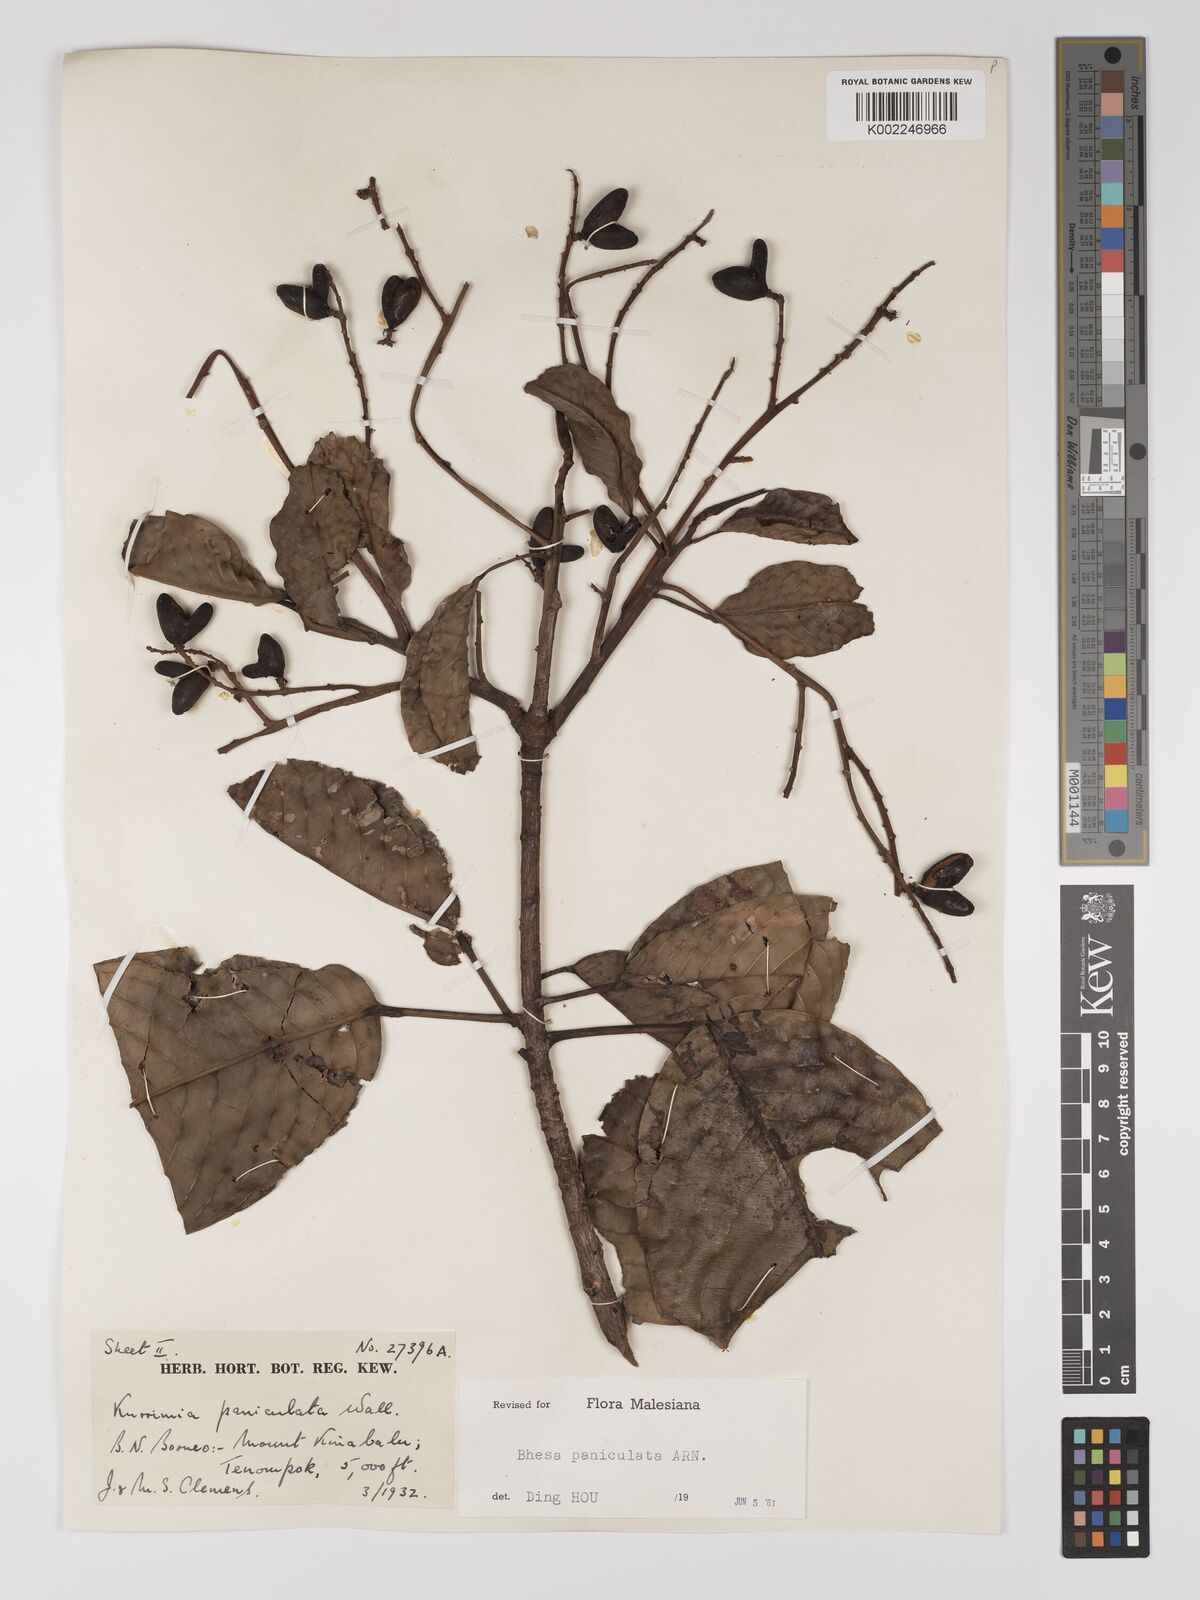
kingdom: Plantae
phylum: Tracheophyta
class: Magnoliopsida
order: Malpighiales
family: Centroplacaceae
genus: Bhesa
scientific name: Bhesa paniculata
